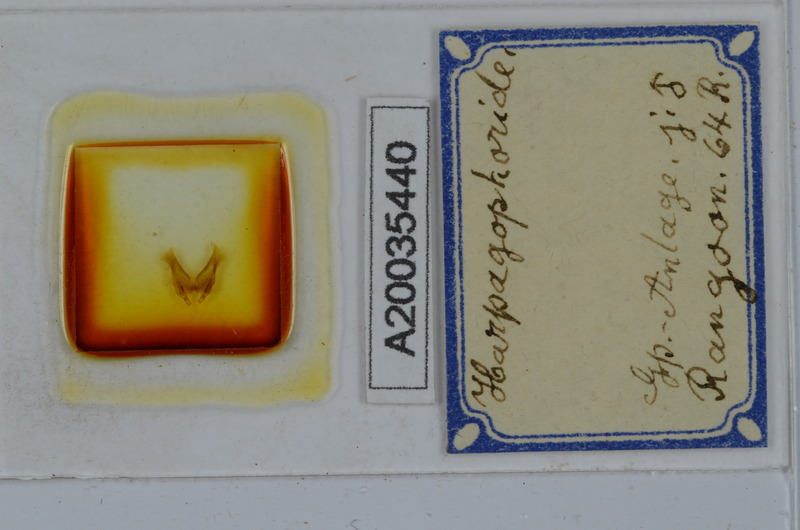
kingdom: Animalia
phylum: Arthropoda
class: Diplopoda
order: Spirostreptida
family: Harpagophoridae
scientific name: Harpagophoridae
